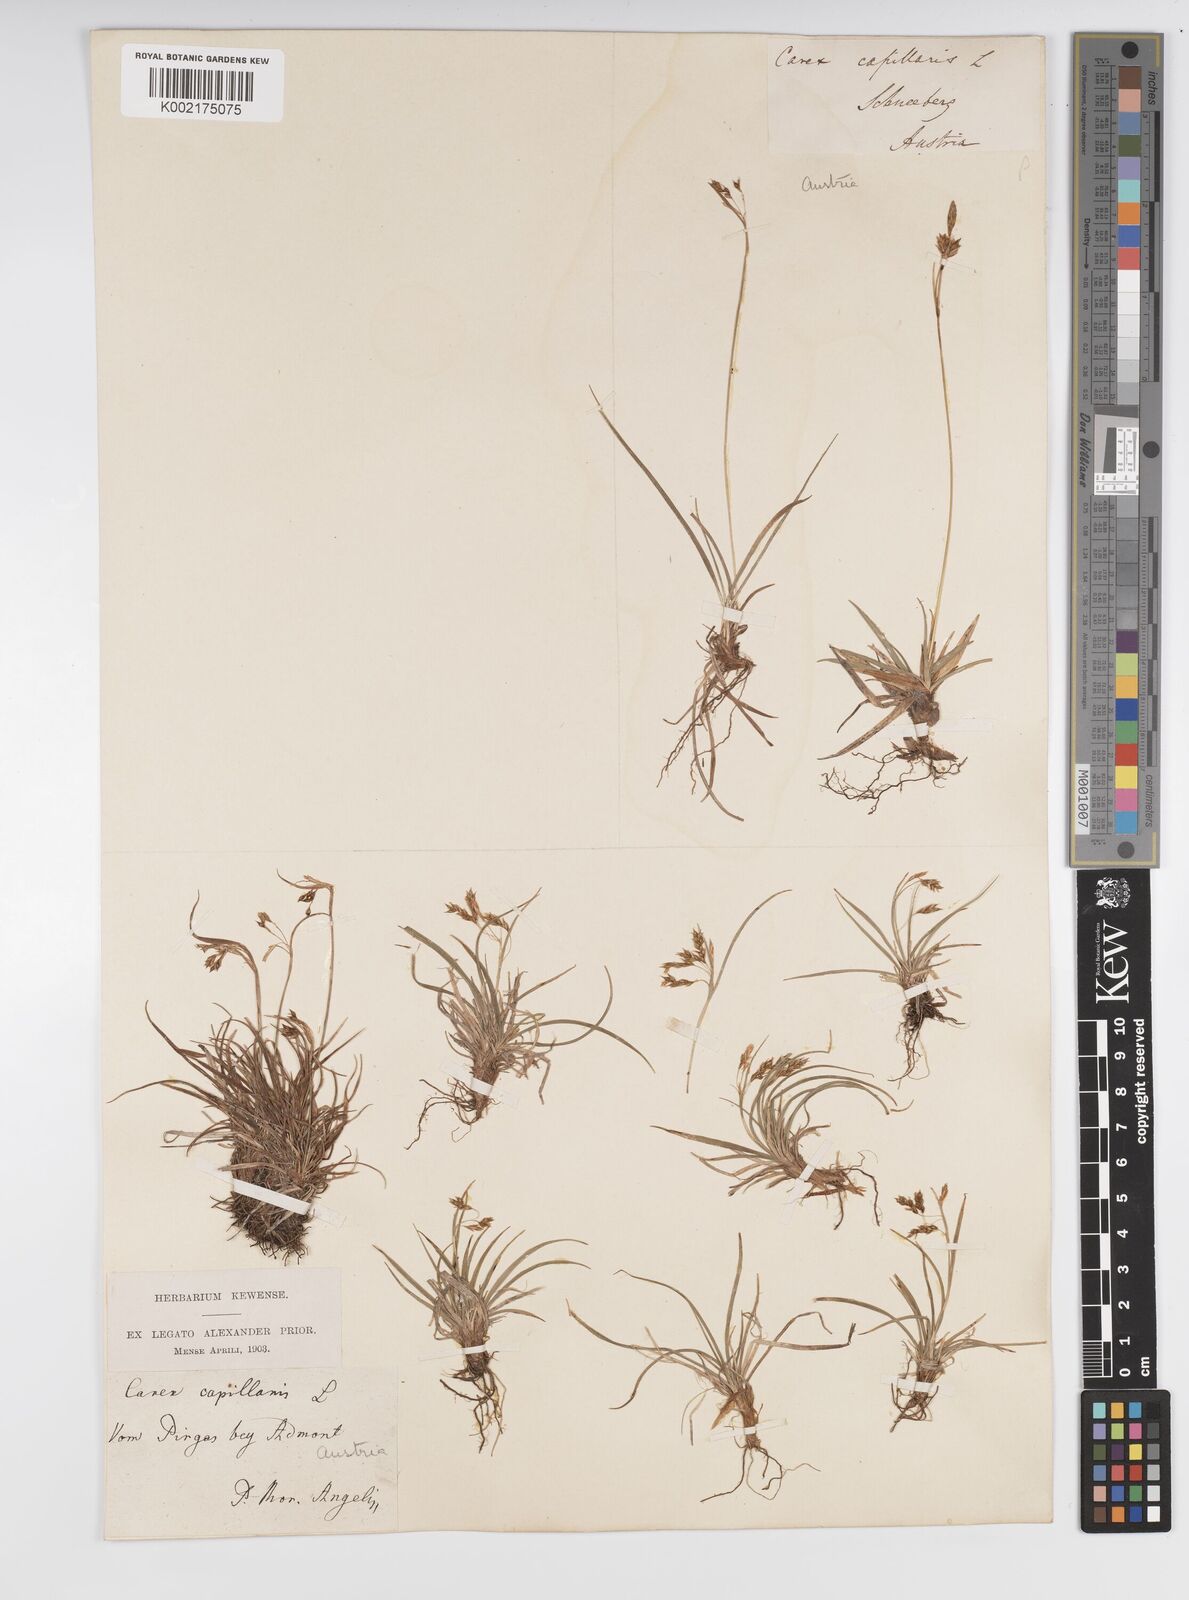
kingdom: Plantae
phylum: Tracheophyta
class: Liliopsida
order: Poales
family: Cyperaceae
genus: Carex
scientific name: Carex capillaris
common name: Hair sedge
